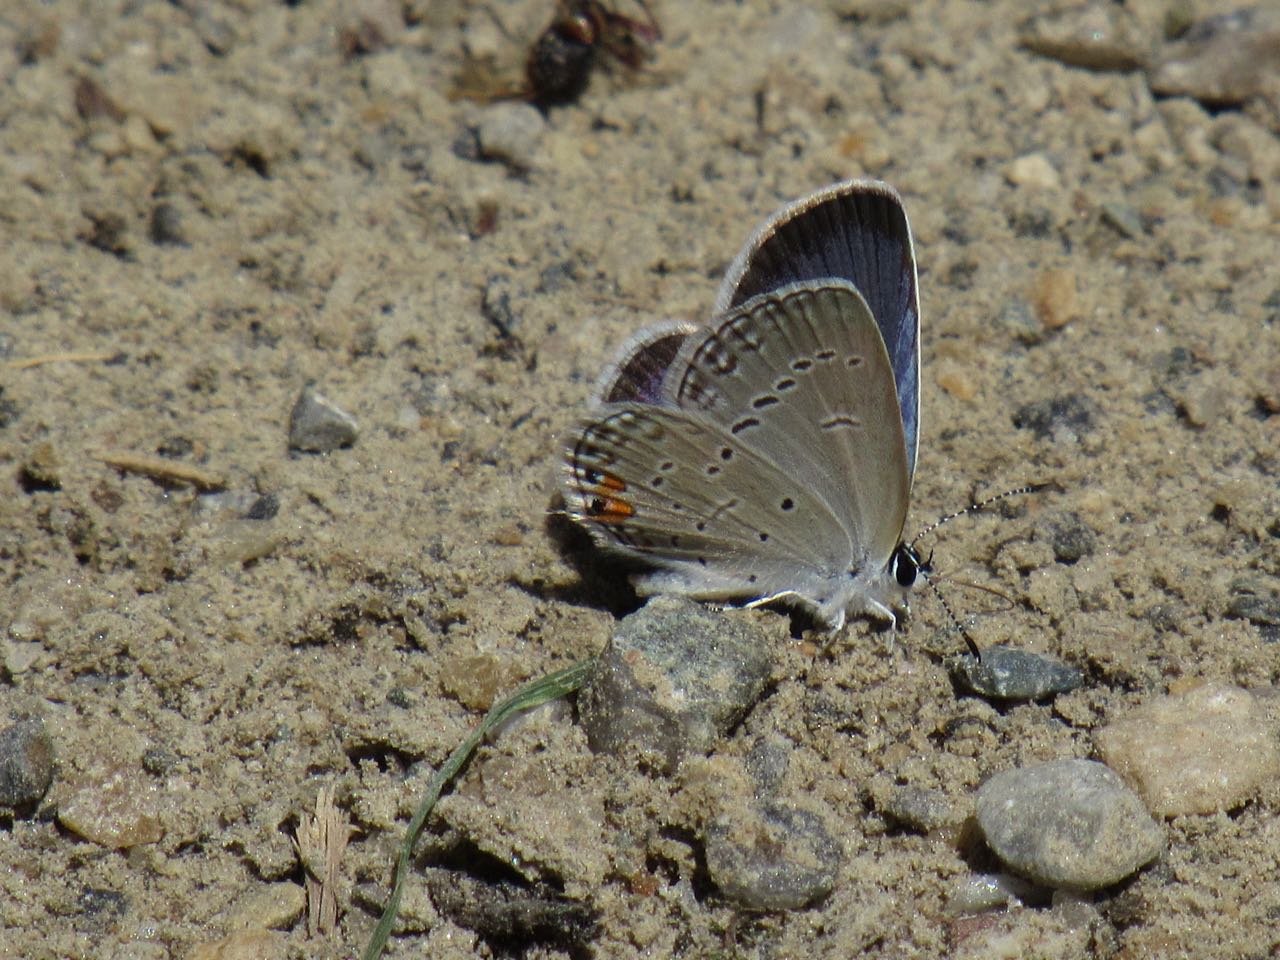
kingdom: Animalia
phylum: Arthropoda
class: Insecta
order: Lepidoptera
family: Lycaenidae
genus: Elkalyce
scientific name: Elkalyce comyntas
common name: Eastern Tailed-Blue
